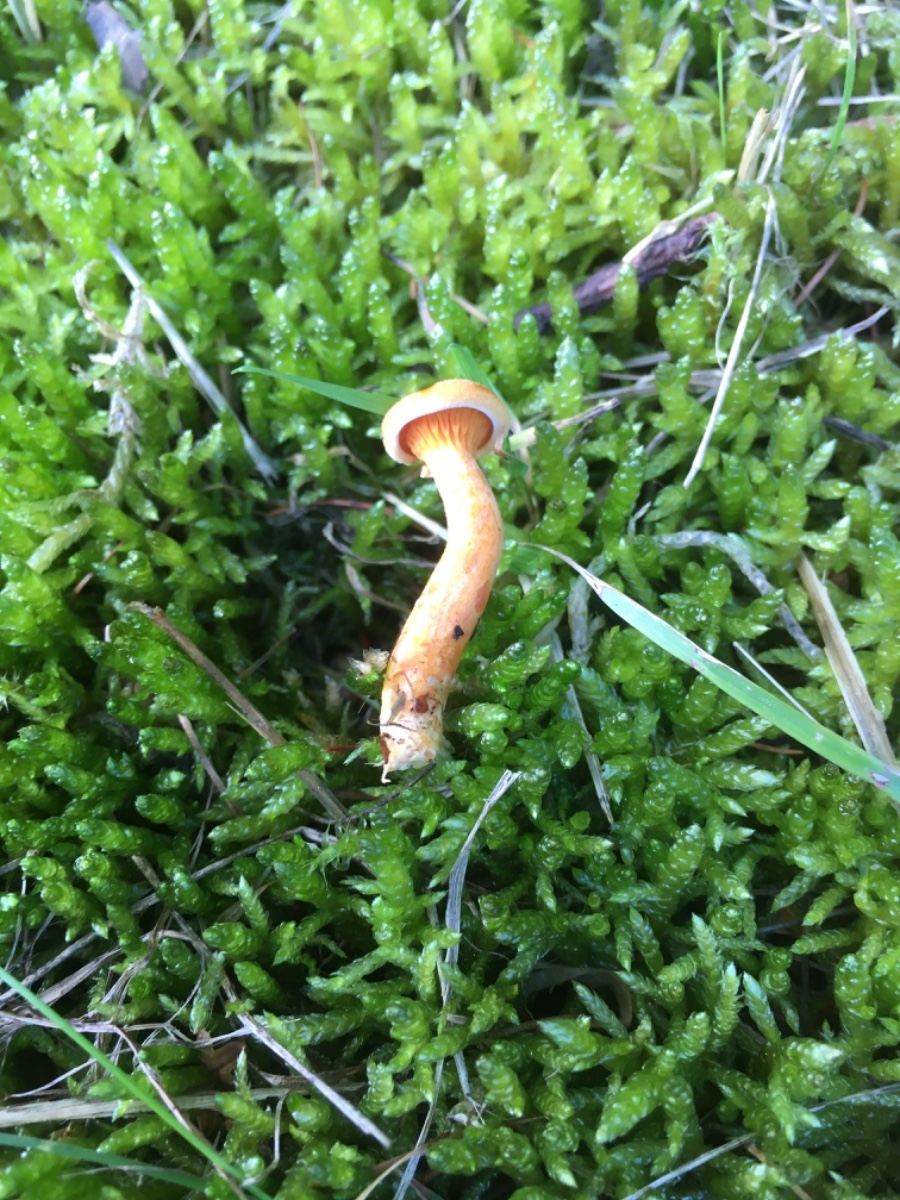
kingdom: Fungi
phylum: Basidiomycota
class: Agaricomycetes
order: Boletales
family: Hygrophoropsidaceae
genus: Hygrophoropsis
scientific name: Hygrophoropsis aurantiaca
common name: almindelig orangekantarel
